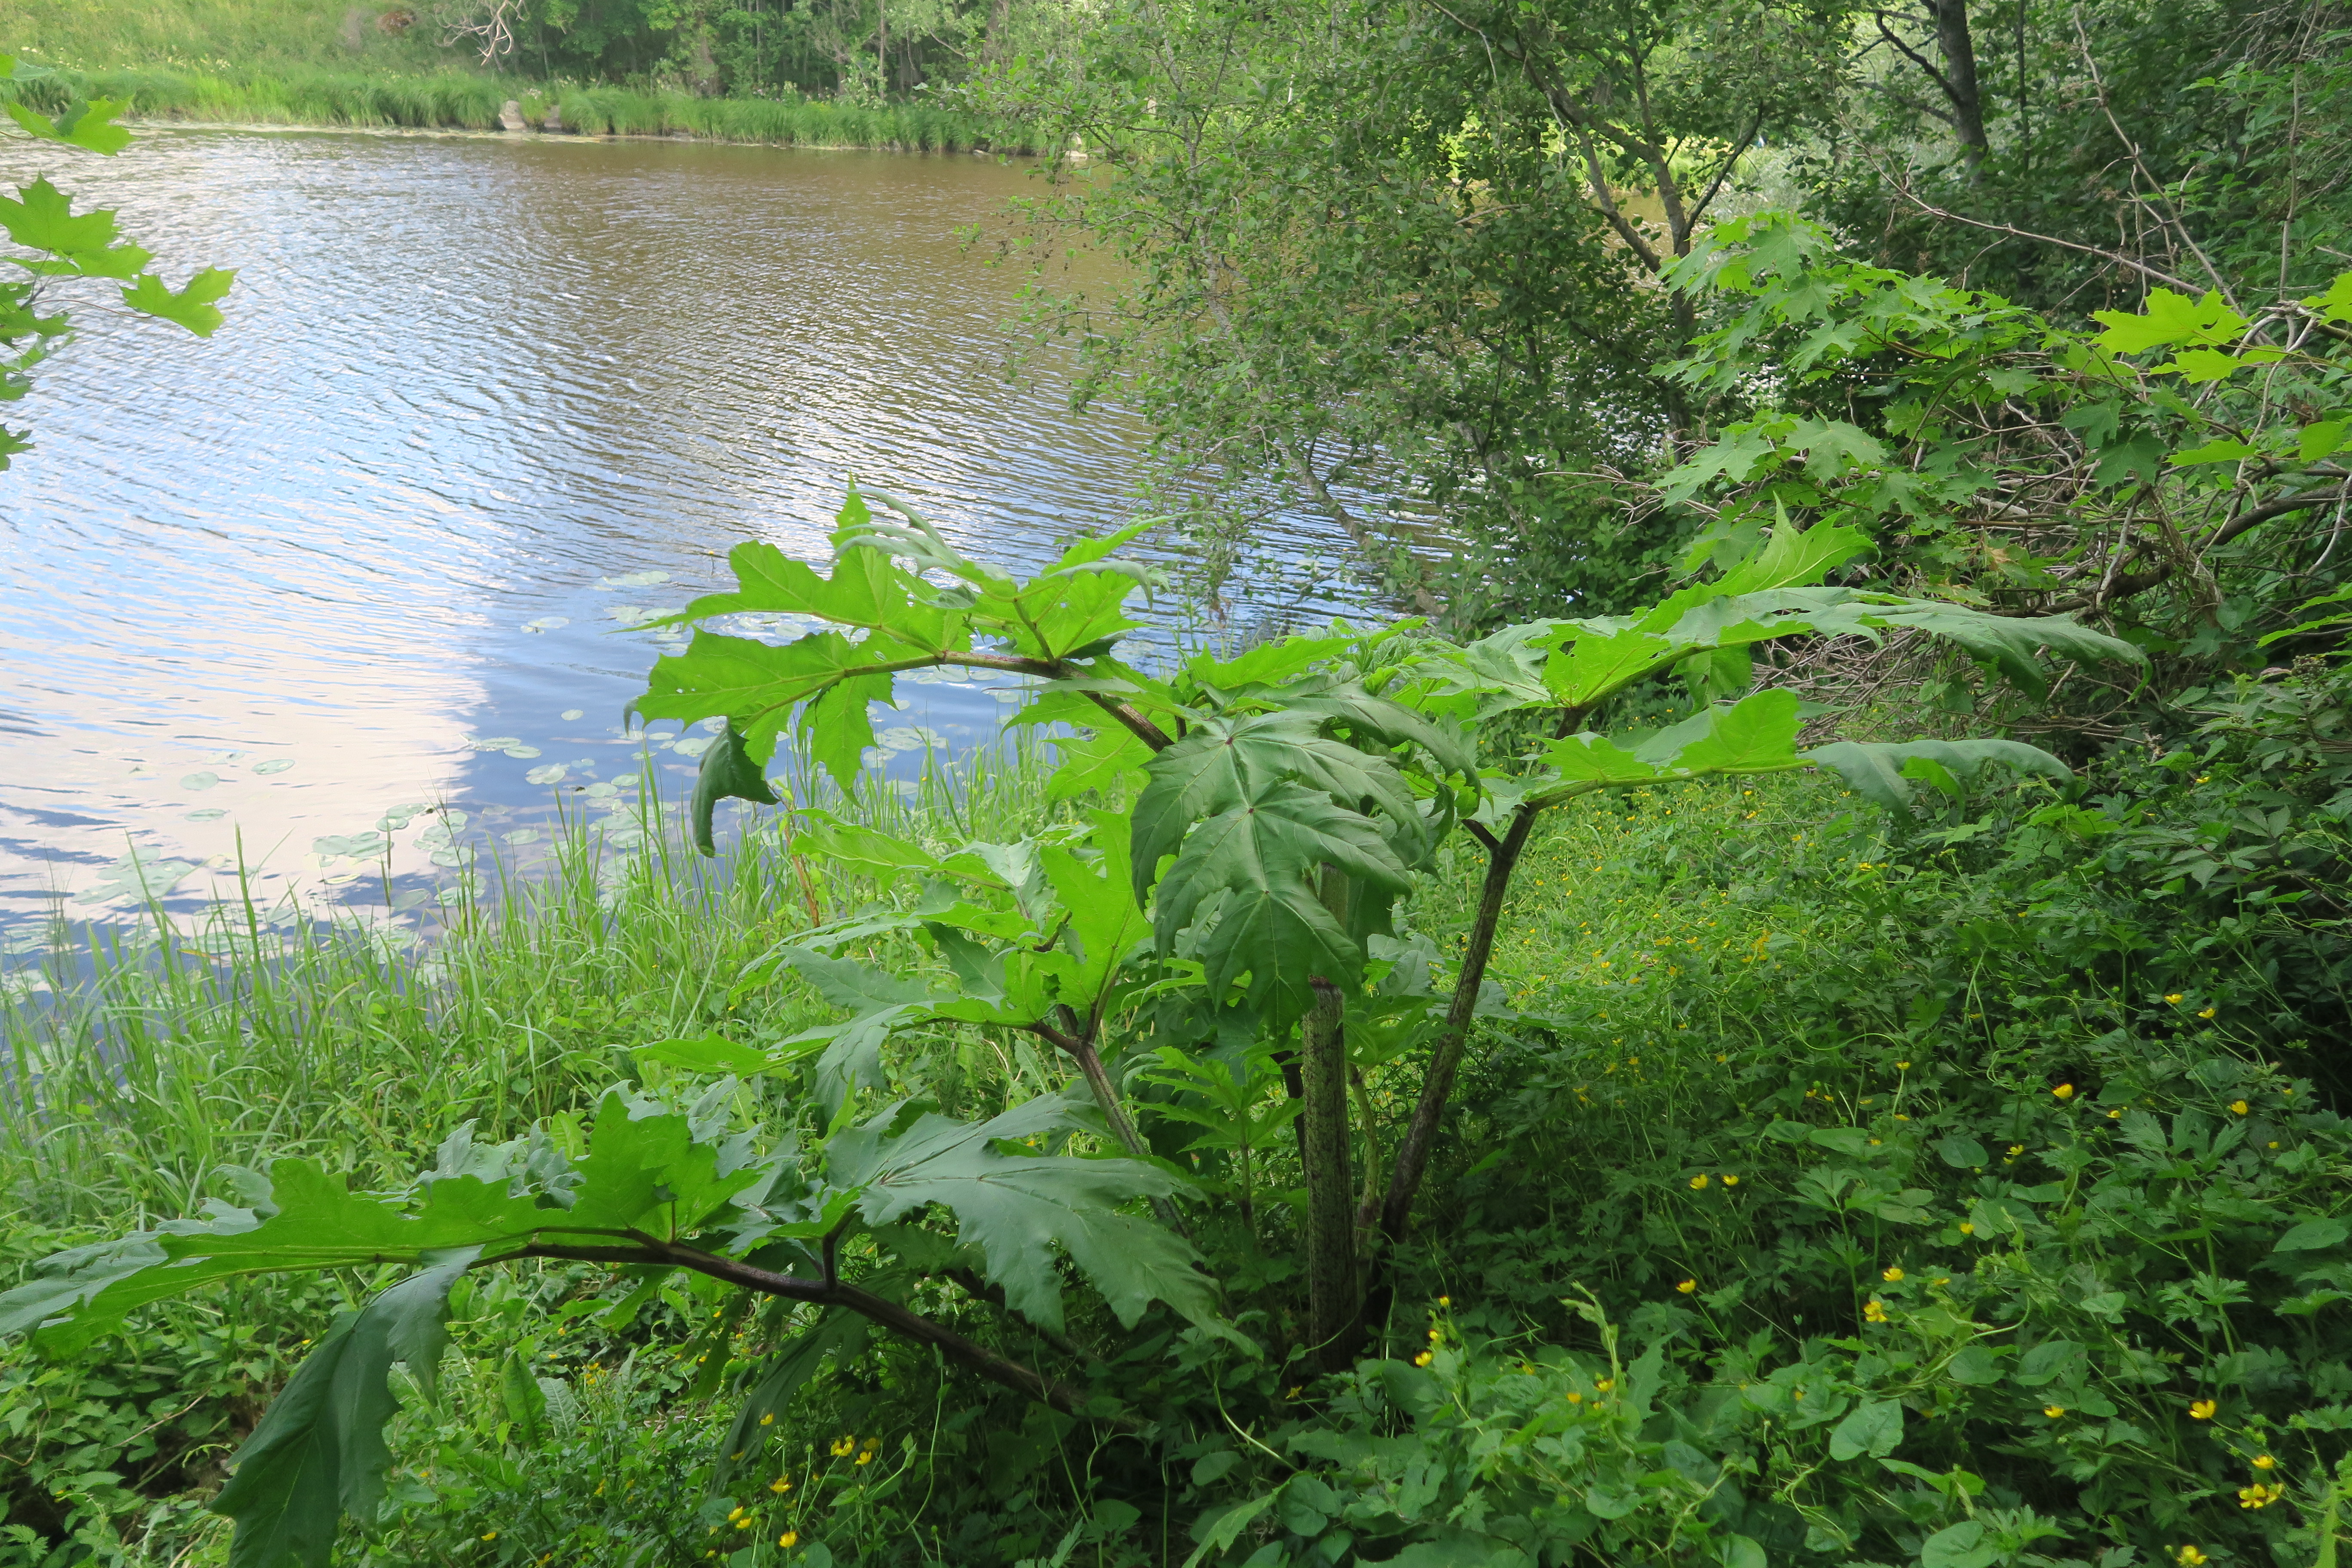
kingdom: Plantae
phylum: Tracheophyta
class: Magnoliopsida
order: Apiales
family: Apiaceae
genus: Heracleum
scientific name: Heracleum
